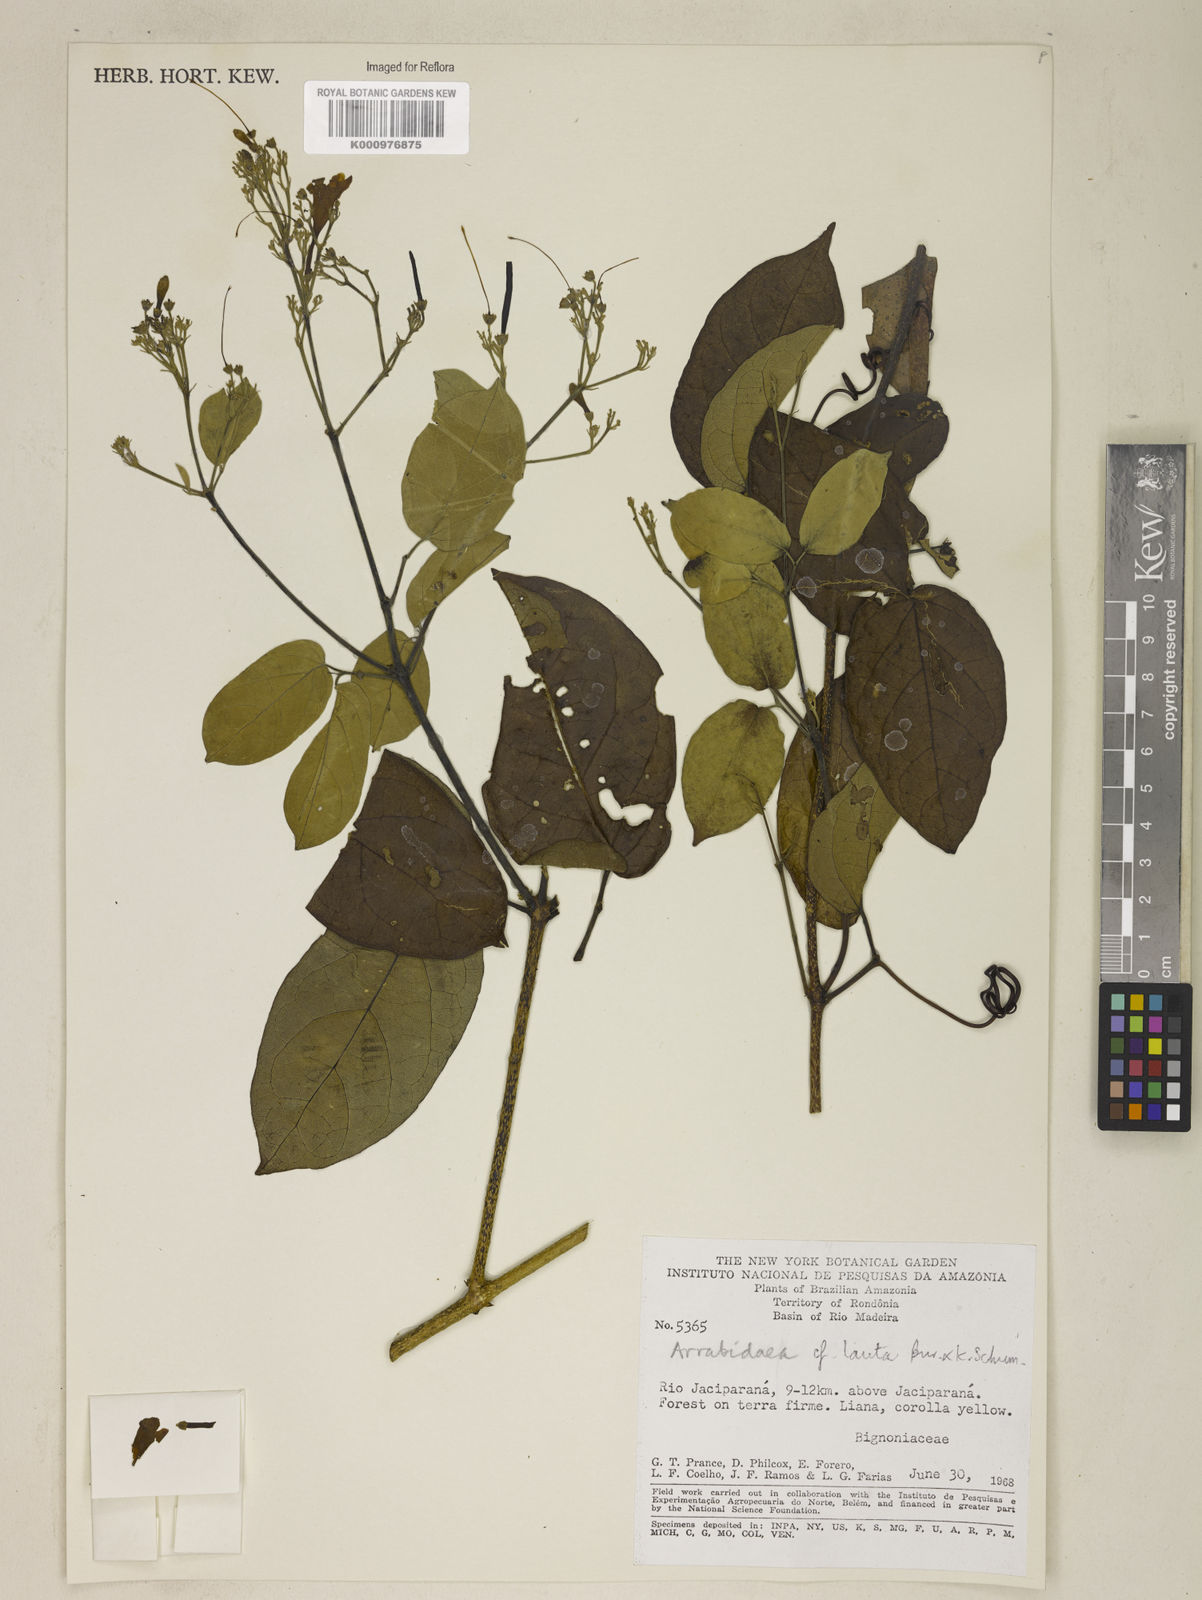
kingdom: Plantae
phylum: Tracheophyta
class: Magnoliopsida
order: Lamiales
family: Bignoniaceae
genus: Fridericia
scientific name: Fridericia lauta
